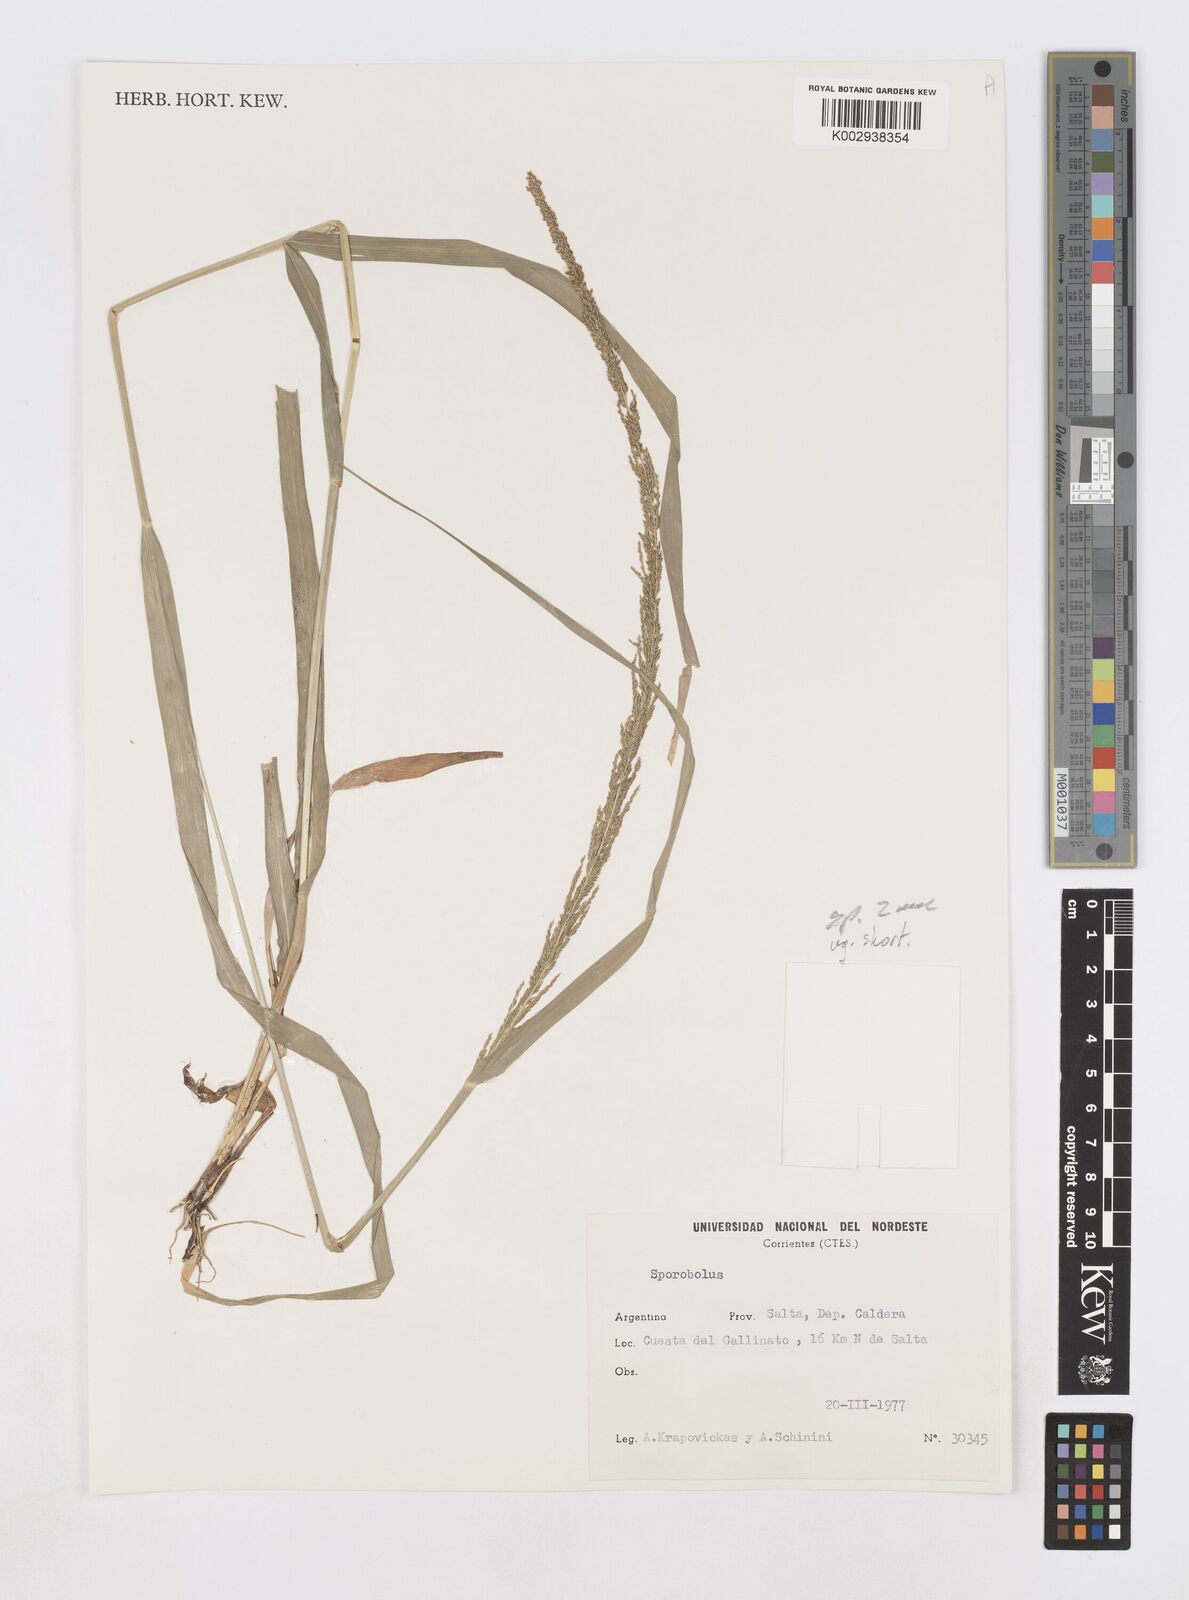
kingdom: Plantae
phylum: Tracheophyta
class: Liliopsida
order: Poales
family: Poaceae
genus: Sporobolus
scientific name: Sporobolus pseudairoides
